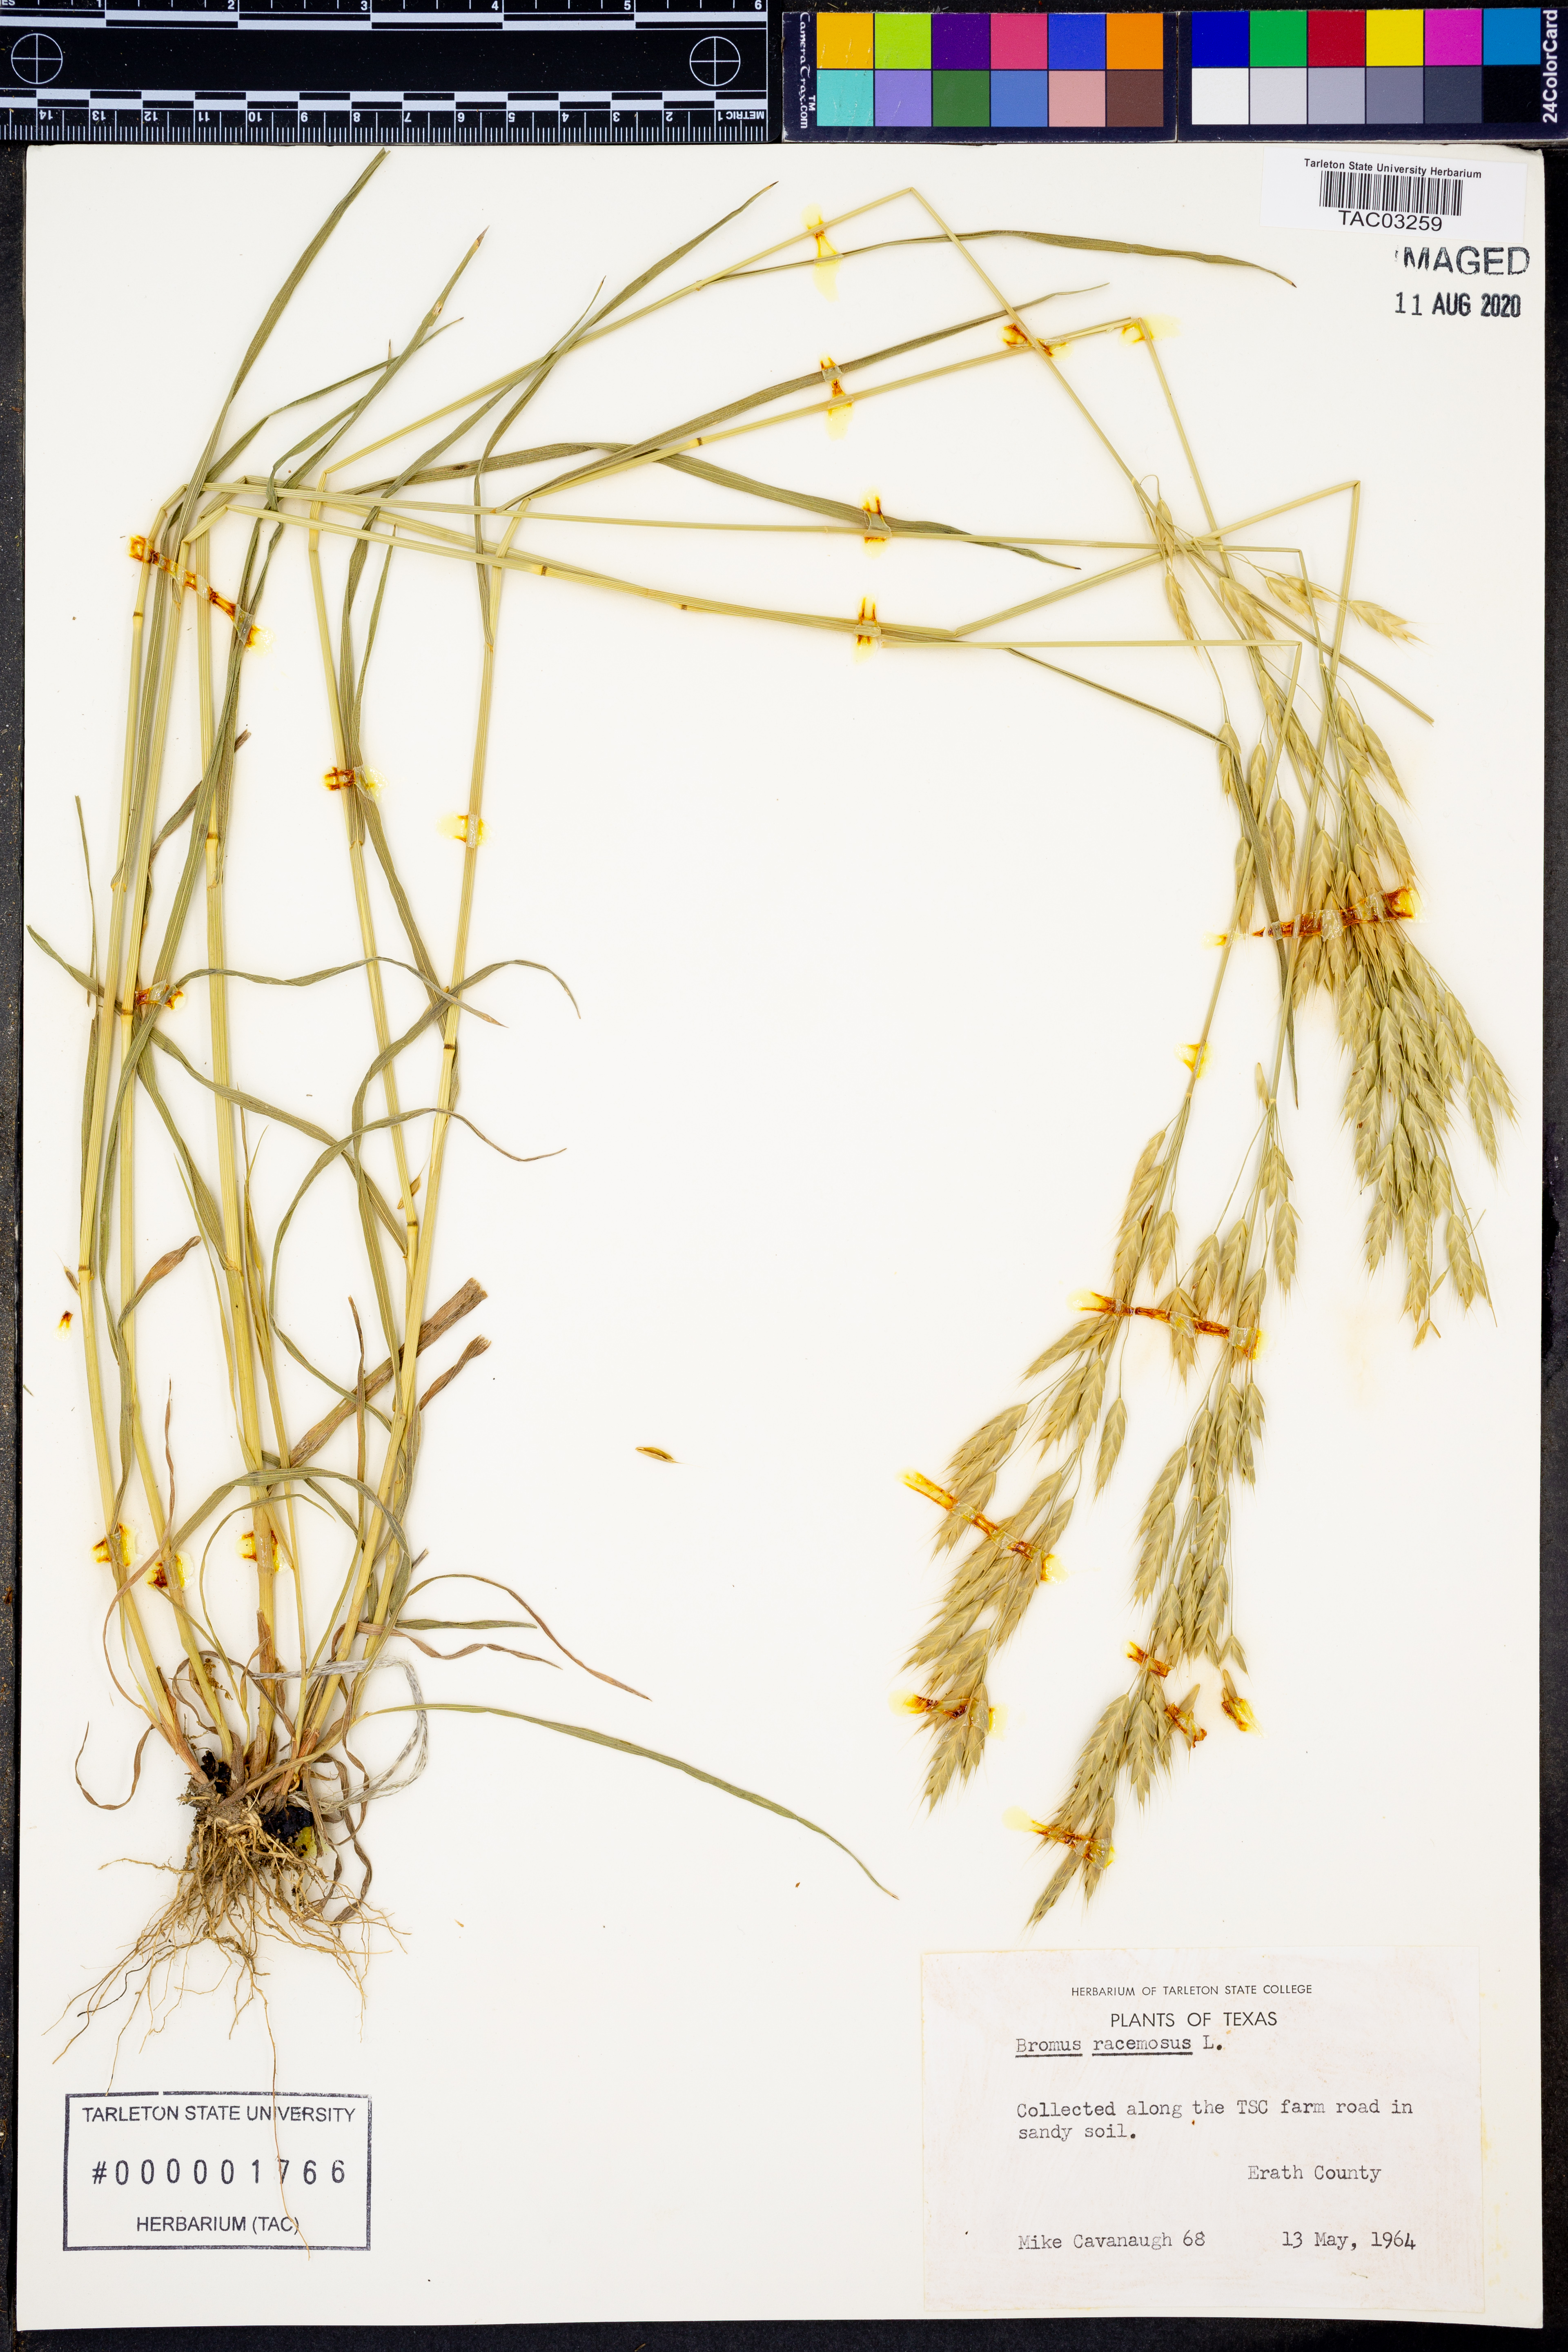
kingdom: Plantae
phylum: Tracheophyta
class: Liliopsida
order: Poales
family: Poaceae
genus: Bromus
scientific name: Bromus racemosus
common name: Bald brome
